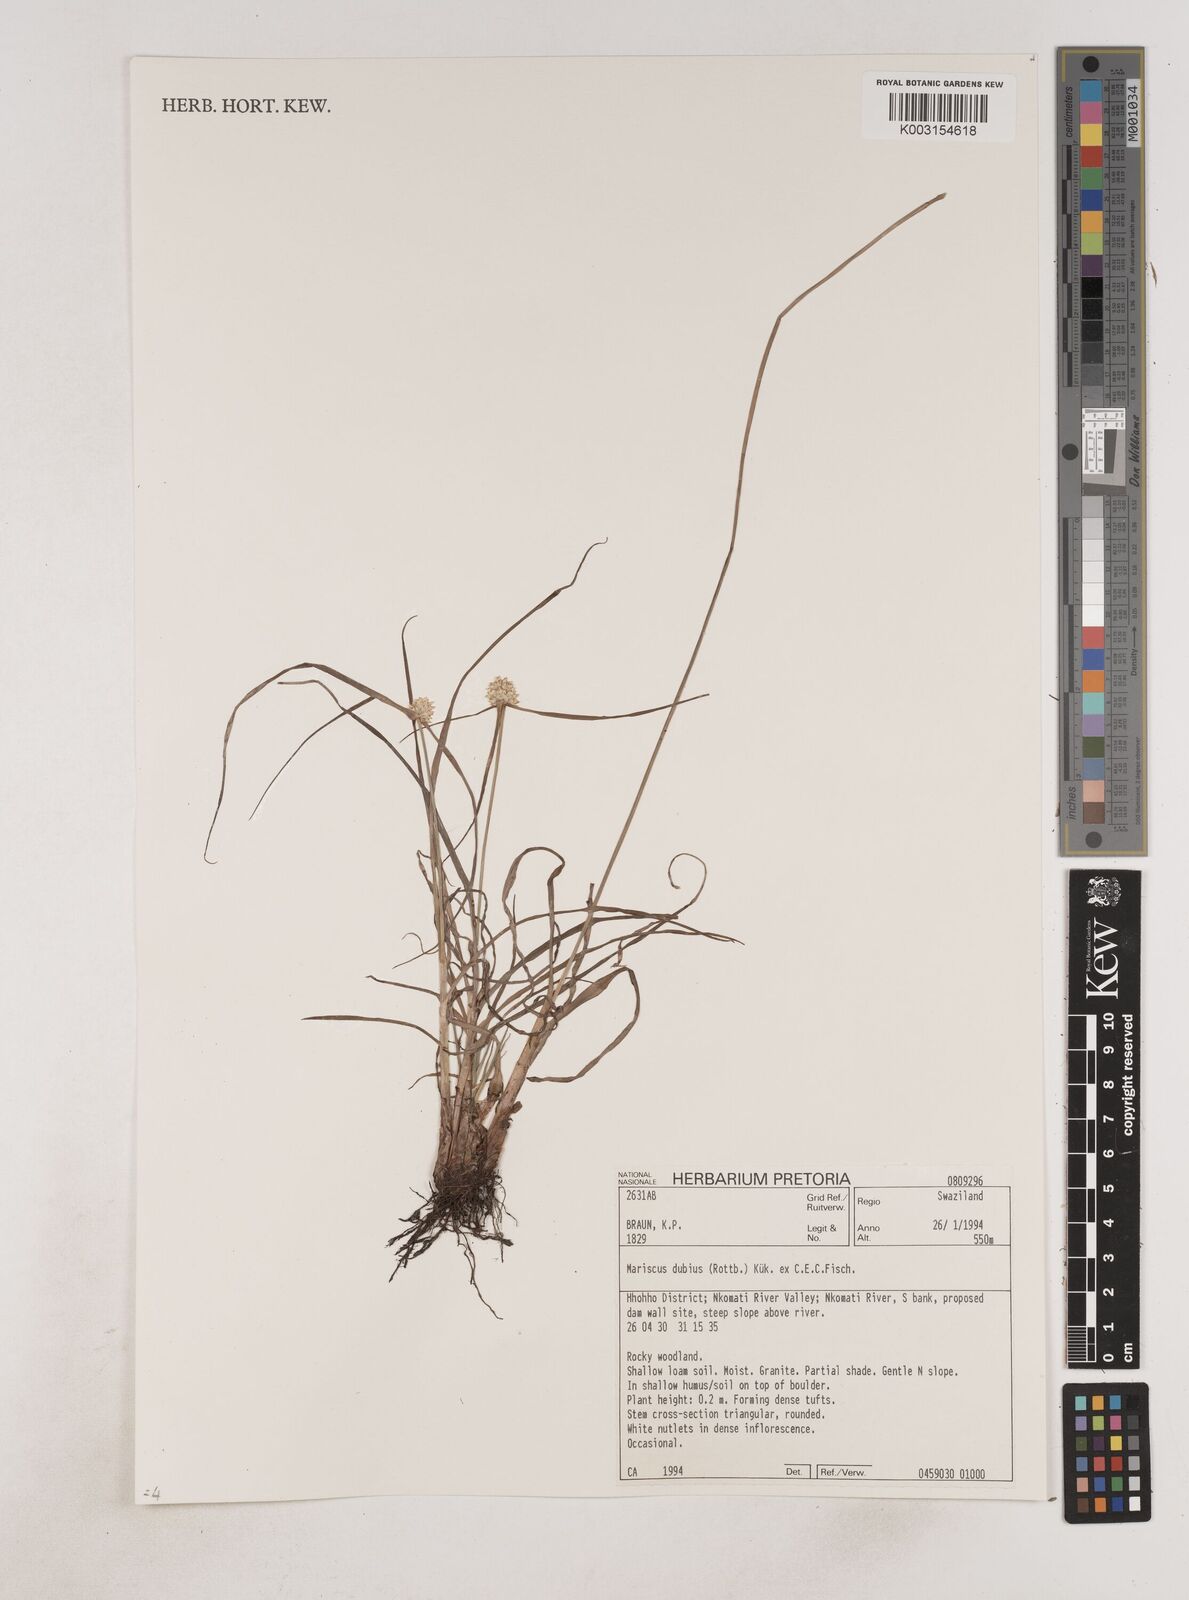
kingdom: Plantae
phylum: Tracheophyta
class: Liliopsida
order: Poales
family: Cyperaceae
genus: Cyperus
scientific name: Cyperus dubius
